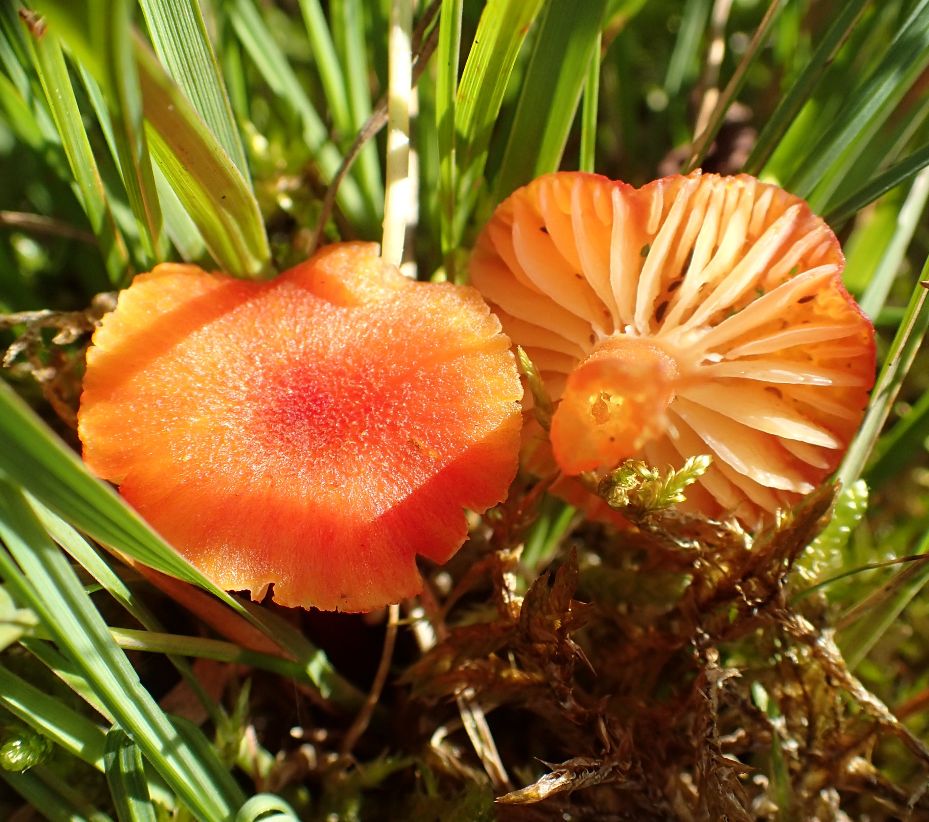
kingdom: Fungi
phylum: Basidiomycota
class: Agaricomycetes
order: Agaricales
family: Hygrophoraceae
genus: Hygrocybe
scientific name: Hygrocybe coccineocrenata
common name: tørvemos-vokshat
